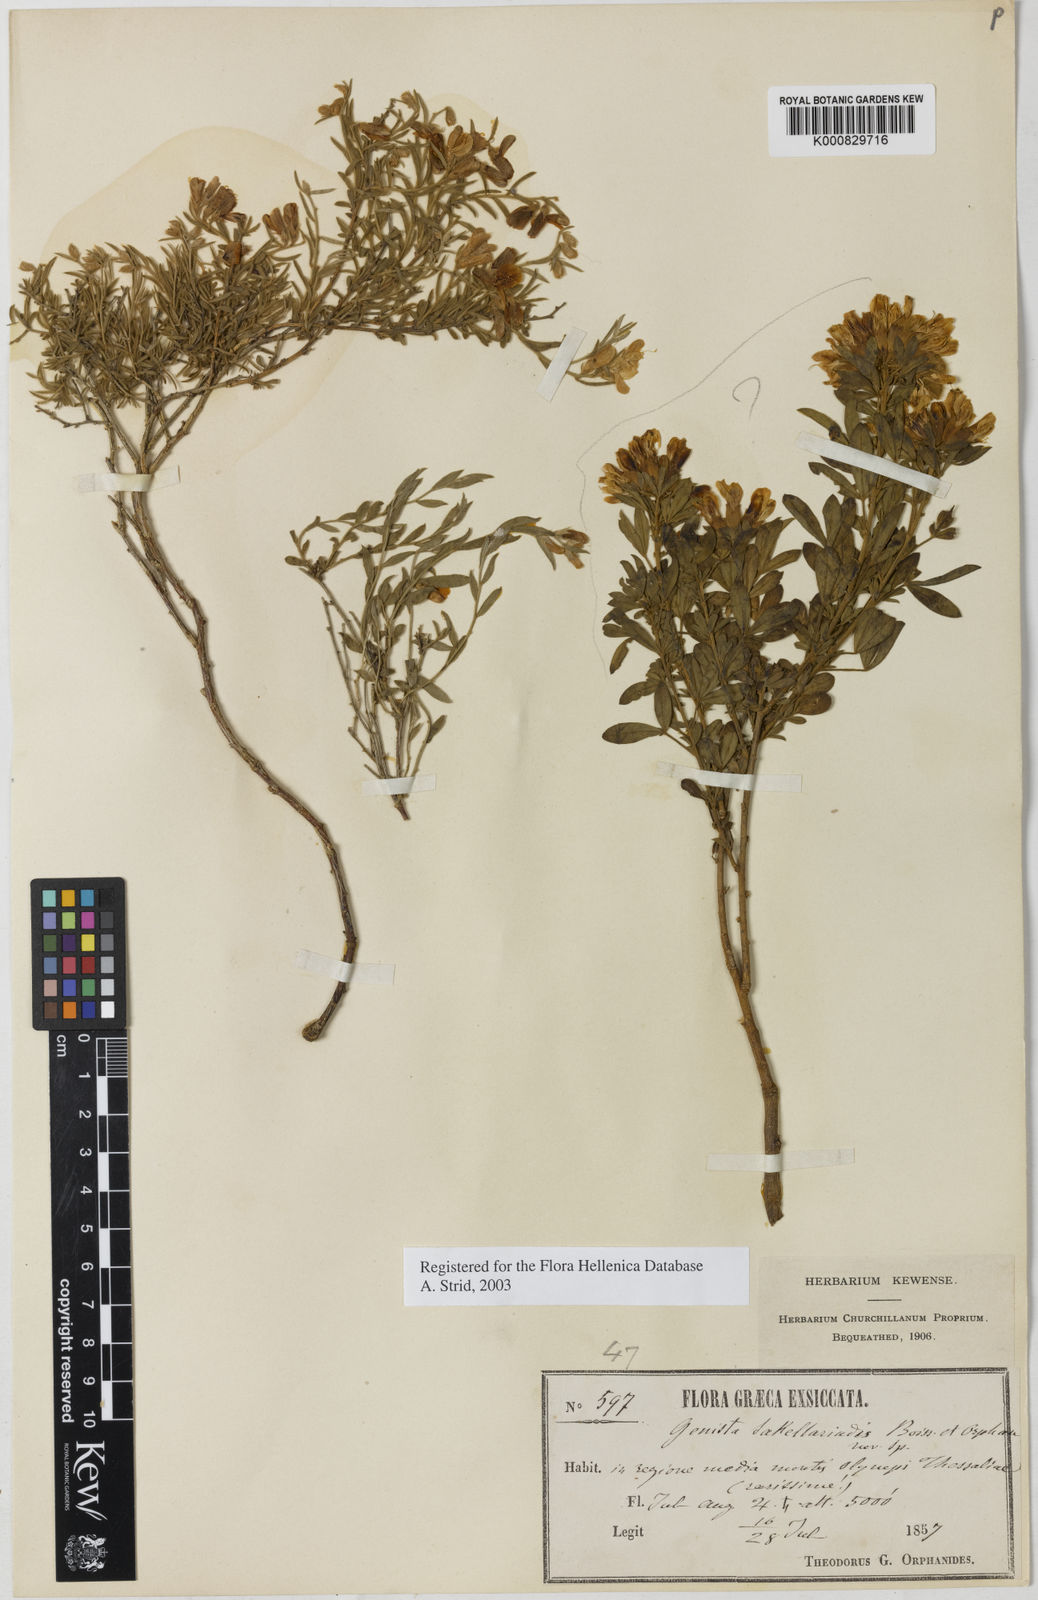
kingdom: Plantae
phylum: Tracheophyta
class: Magnoliopsida
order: Fabales
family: Fabaceae
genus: Genista
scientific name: Genista sakellariadis
